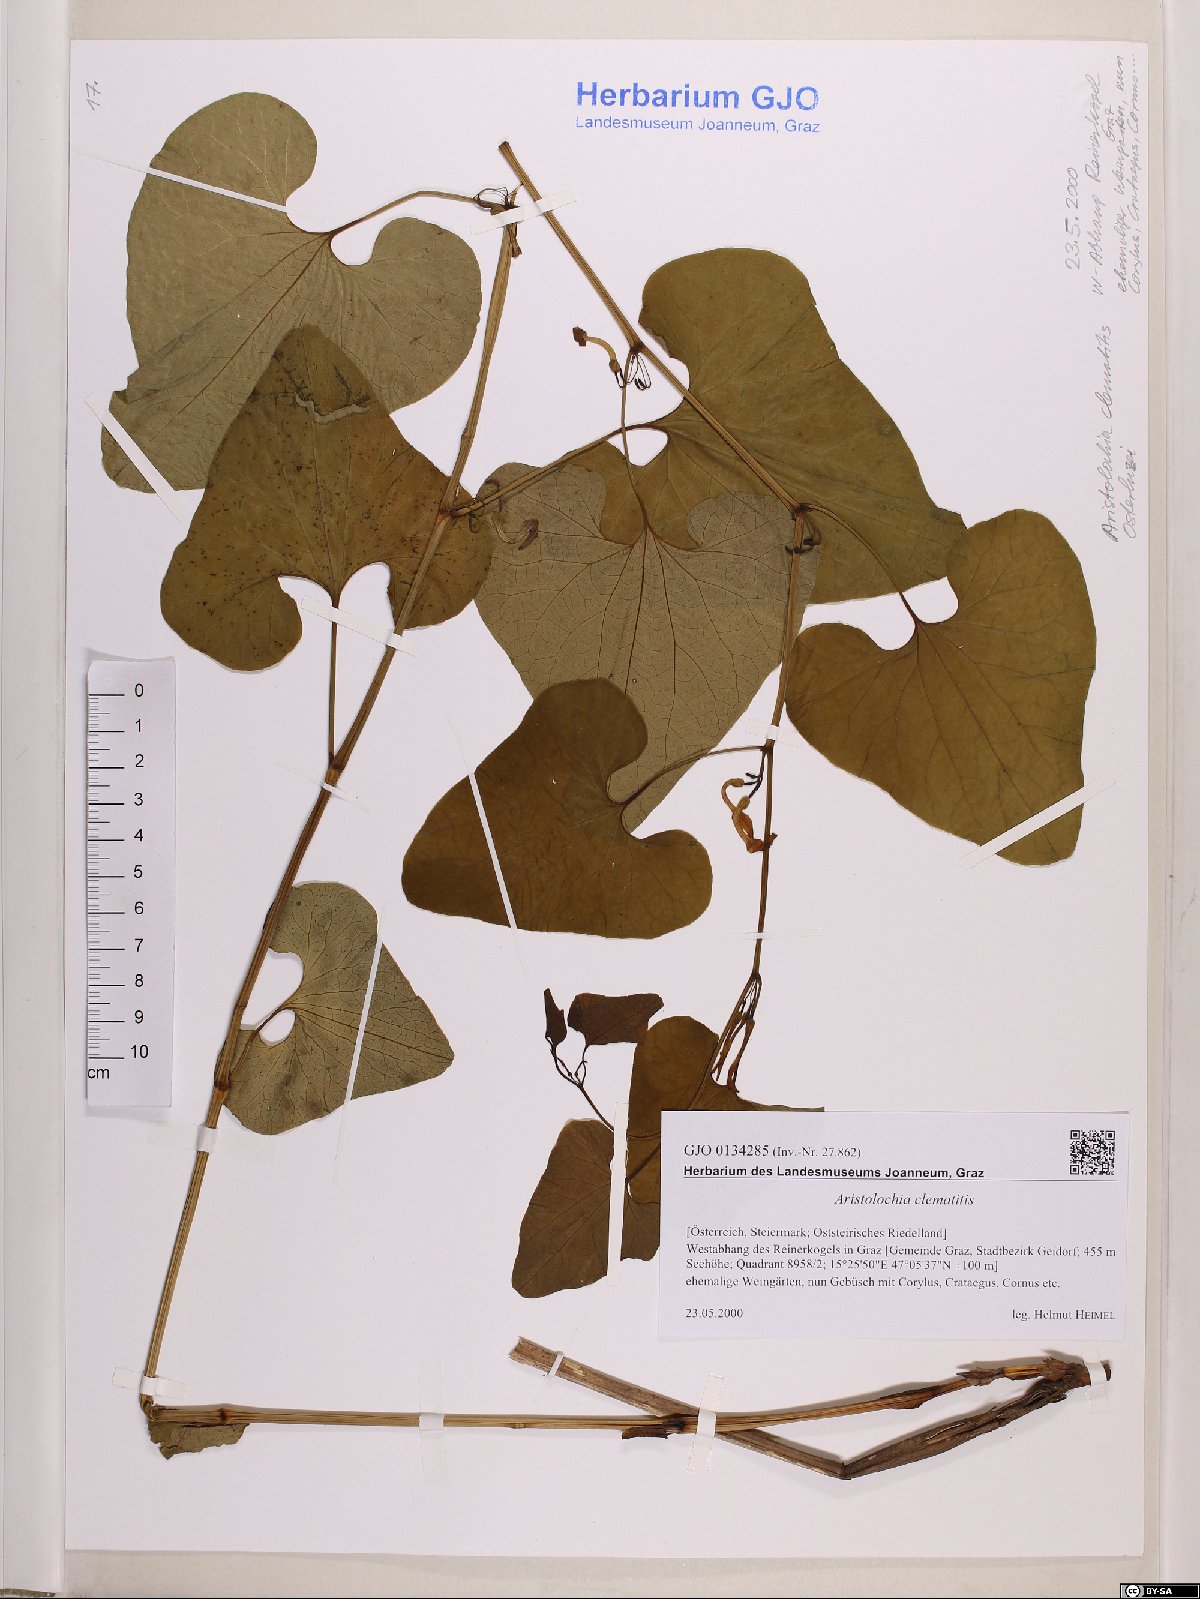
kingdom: Plantae
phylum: Tracheophyta
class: Magnoliopsida
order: Piperales
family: Aristolochiaceae
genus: Aristolochia
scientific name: Aristolochia clematitis
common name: Birthwort
